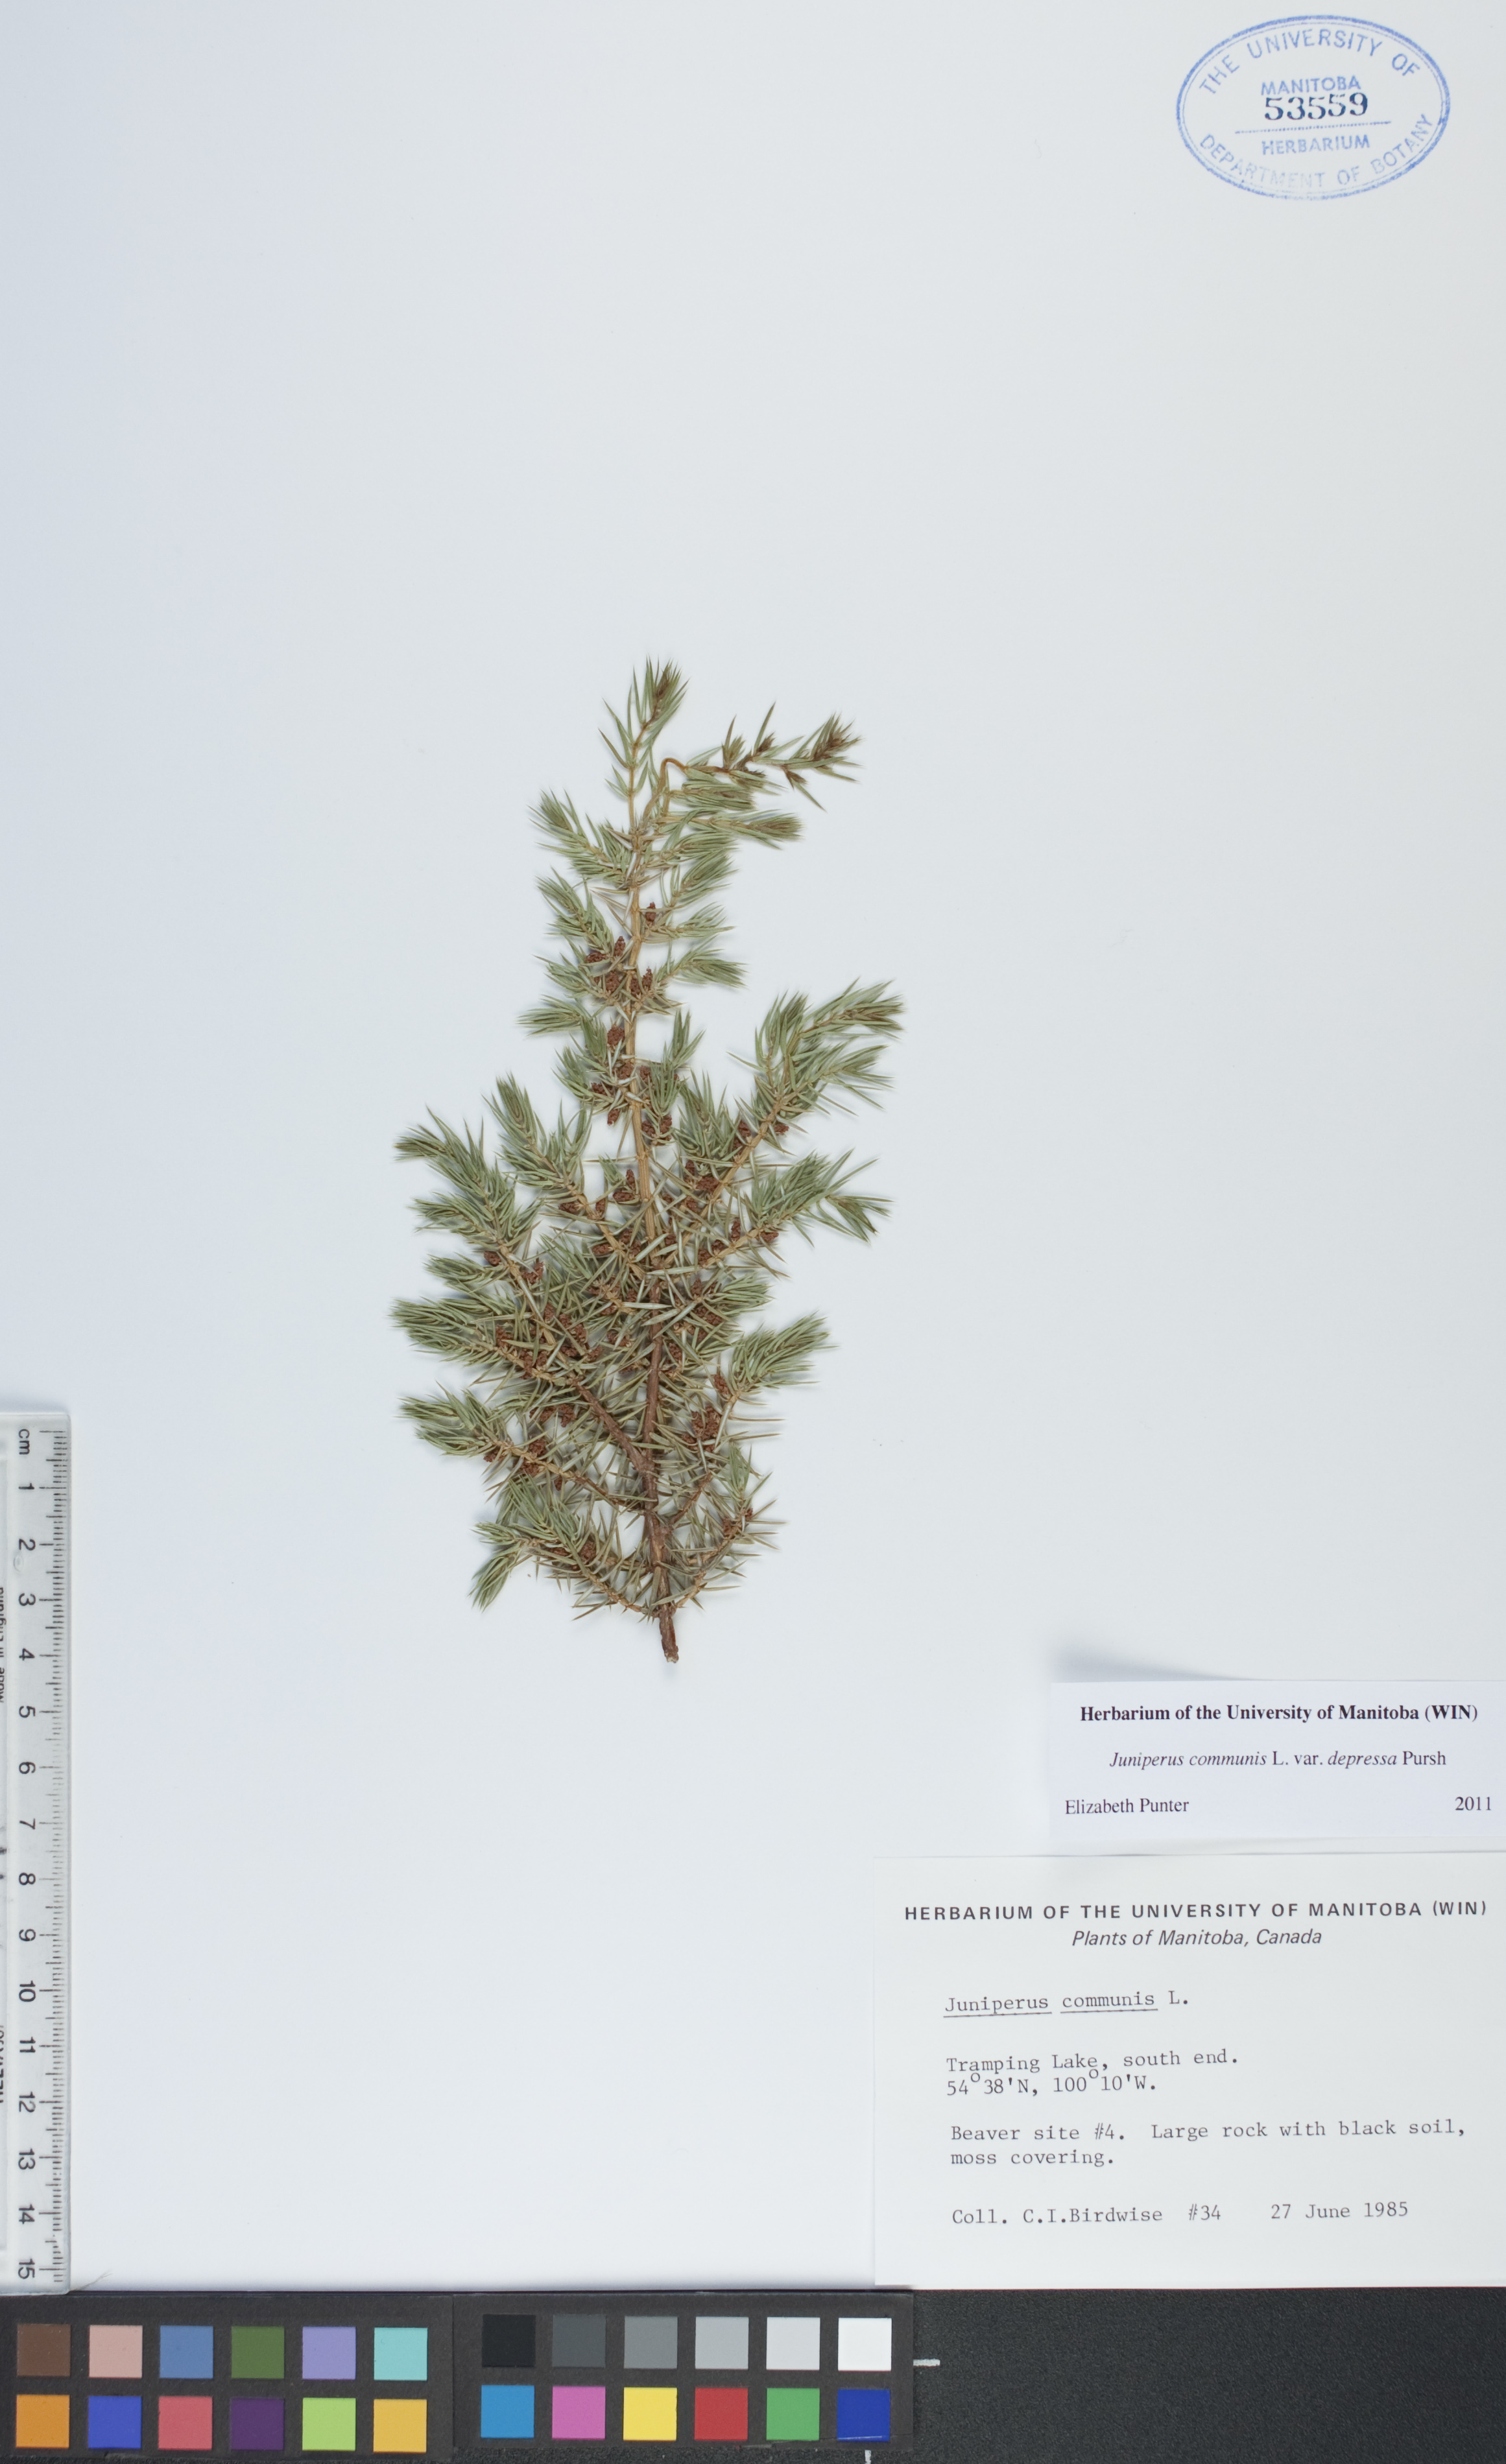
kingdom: Plantae
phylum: Tracheophyta
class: Pinopsida
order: Pinales
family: Cupressaceae
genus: Juniperus
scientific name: Juniperus communis
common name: Common juniper
